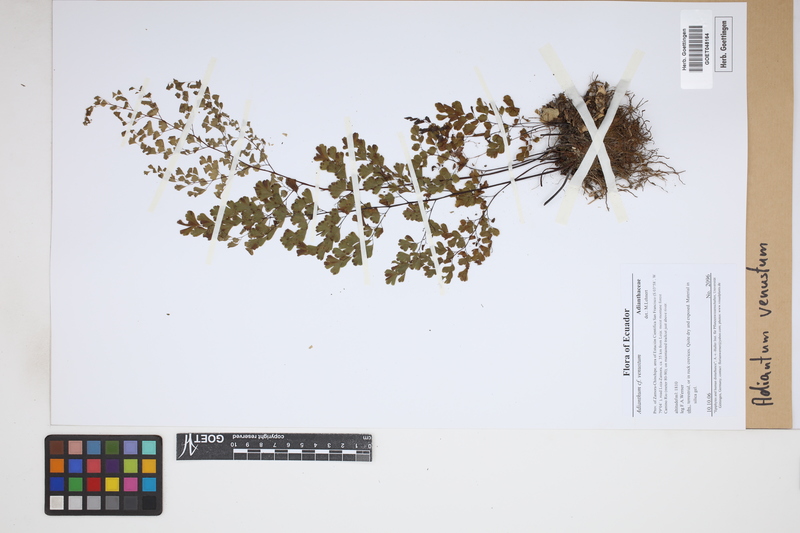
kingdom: Plantae
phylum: Tracheophyta
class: Polypodiopsida
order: Polypodiales
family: Pteridaceae
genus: Adiantum
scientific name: Adiantum venustum
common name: Evergreen maidenhair
